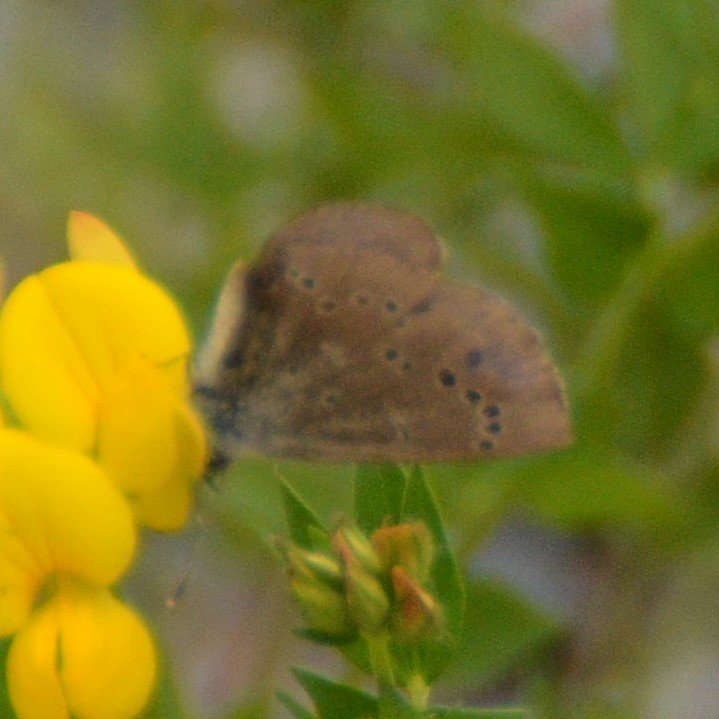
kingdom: Animalia
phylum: Arthropoda
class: Insecta
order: Lepidoptera
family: Lycaenidae
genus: Glaucopsyche
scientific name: Glaucopsyche lygdamus
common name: Silvery Blue
